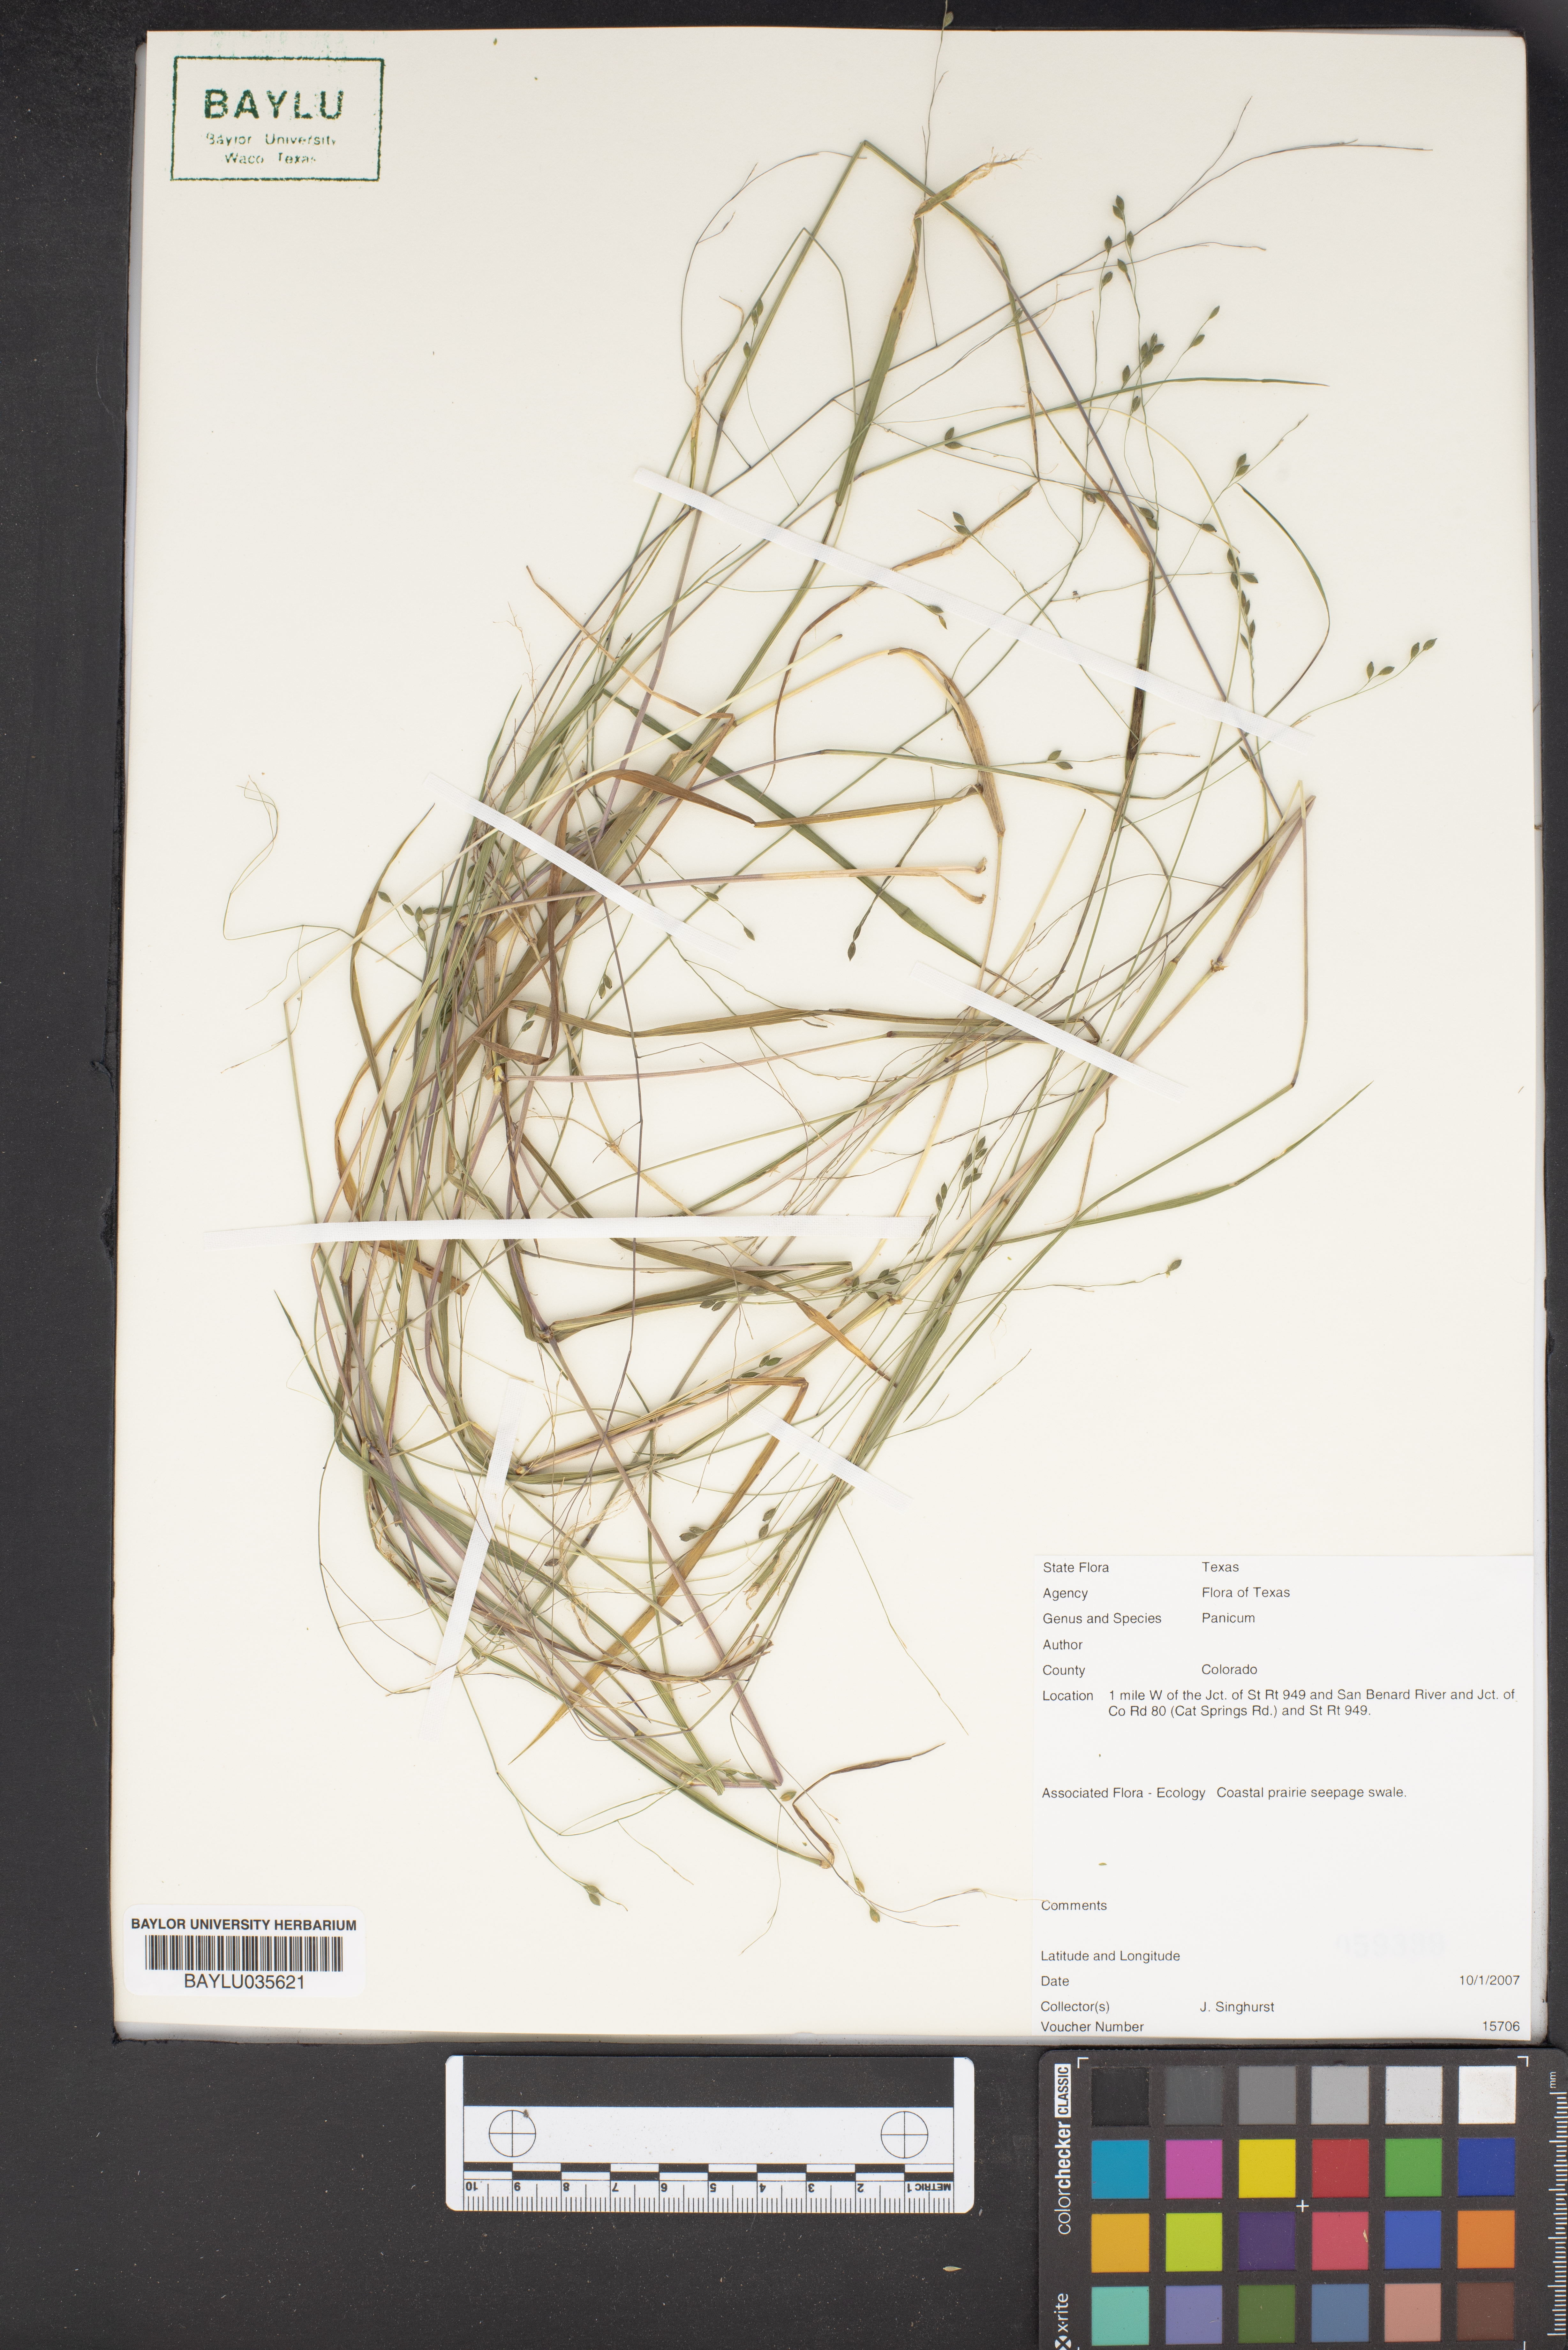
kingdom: Plantae
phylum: Tracheophyta
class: Liliopsida
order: Poales
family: Poaceae
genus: Coleataenia
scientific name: Coleataenia abscissa
